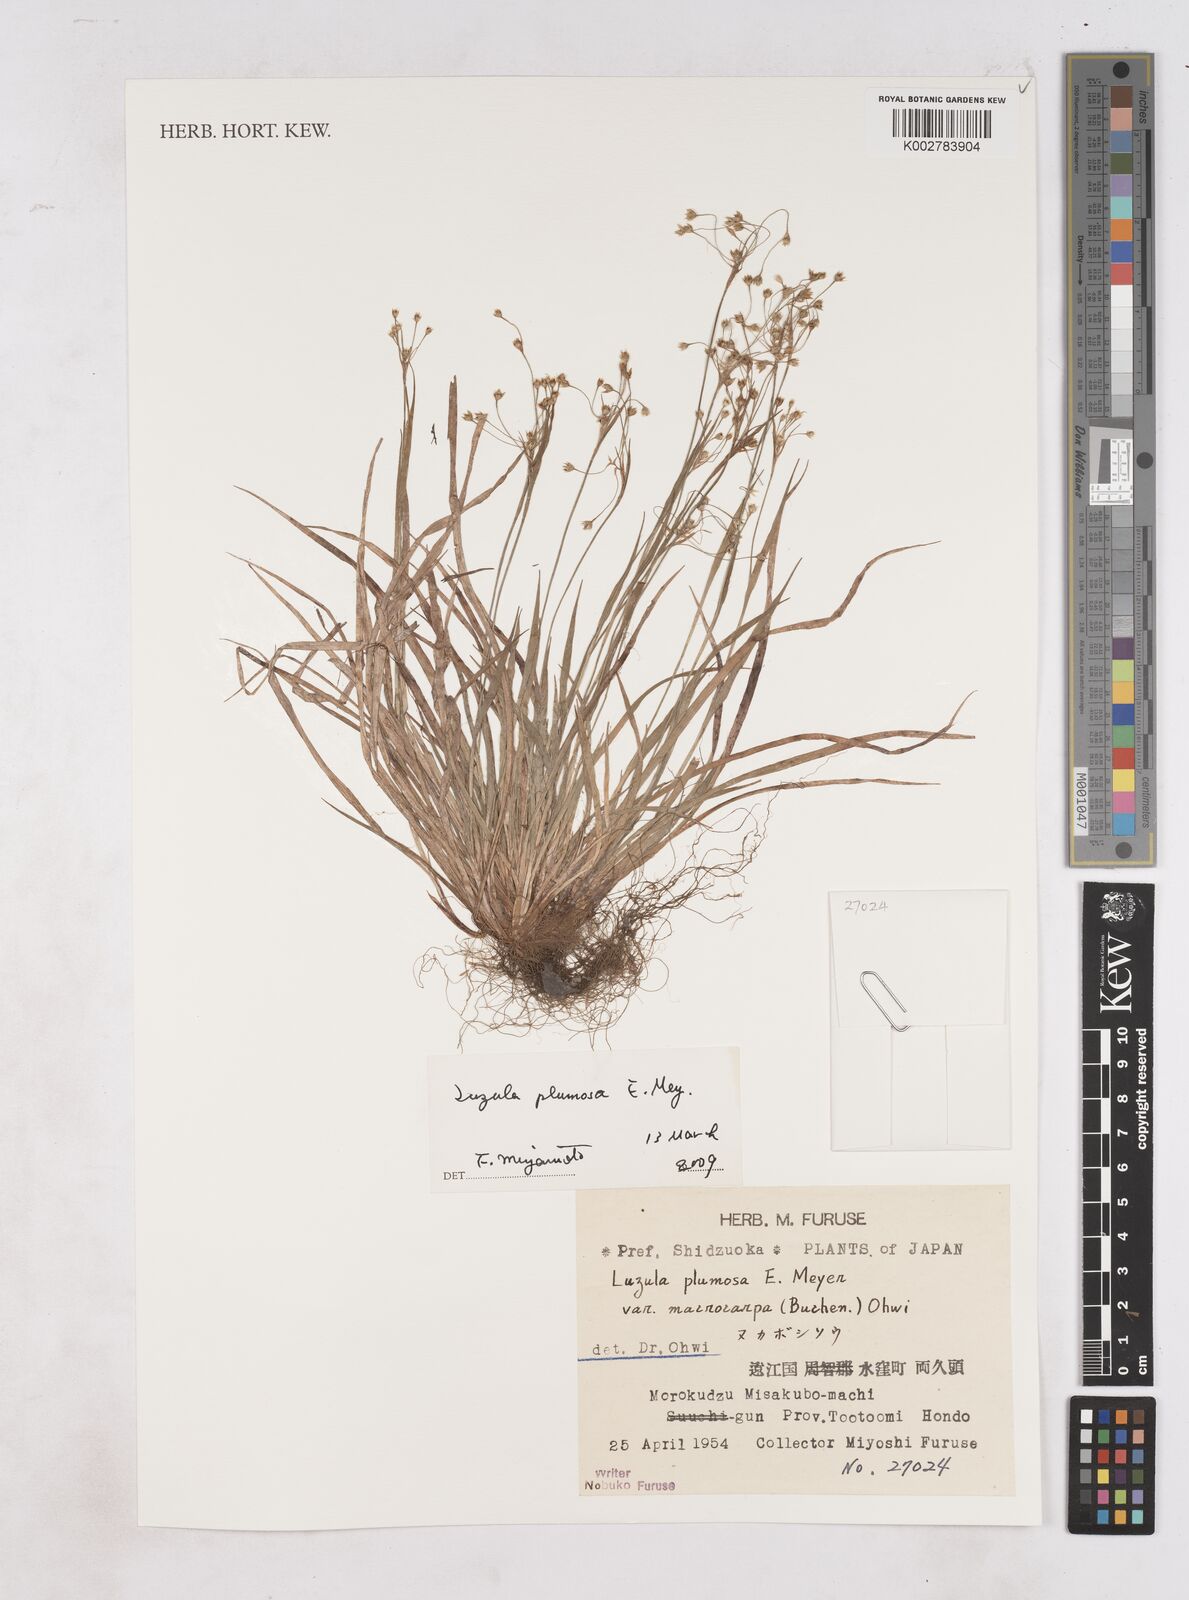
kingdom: Plantae
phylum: Tracheophyta
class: Liliopsida
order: Poales
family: Juncaceae
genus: Luzula
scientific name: Luzula plumosa
